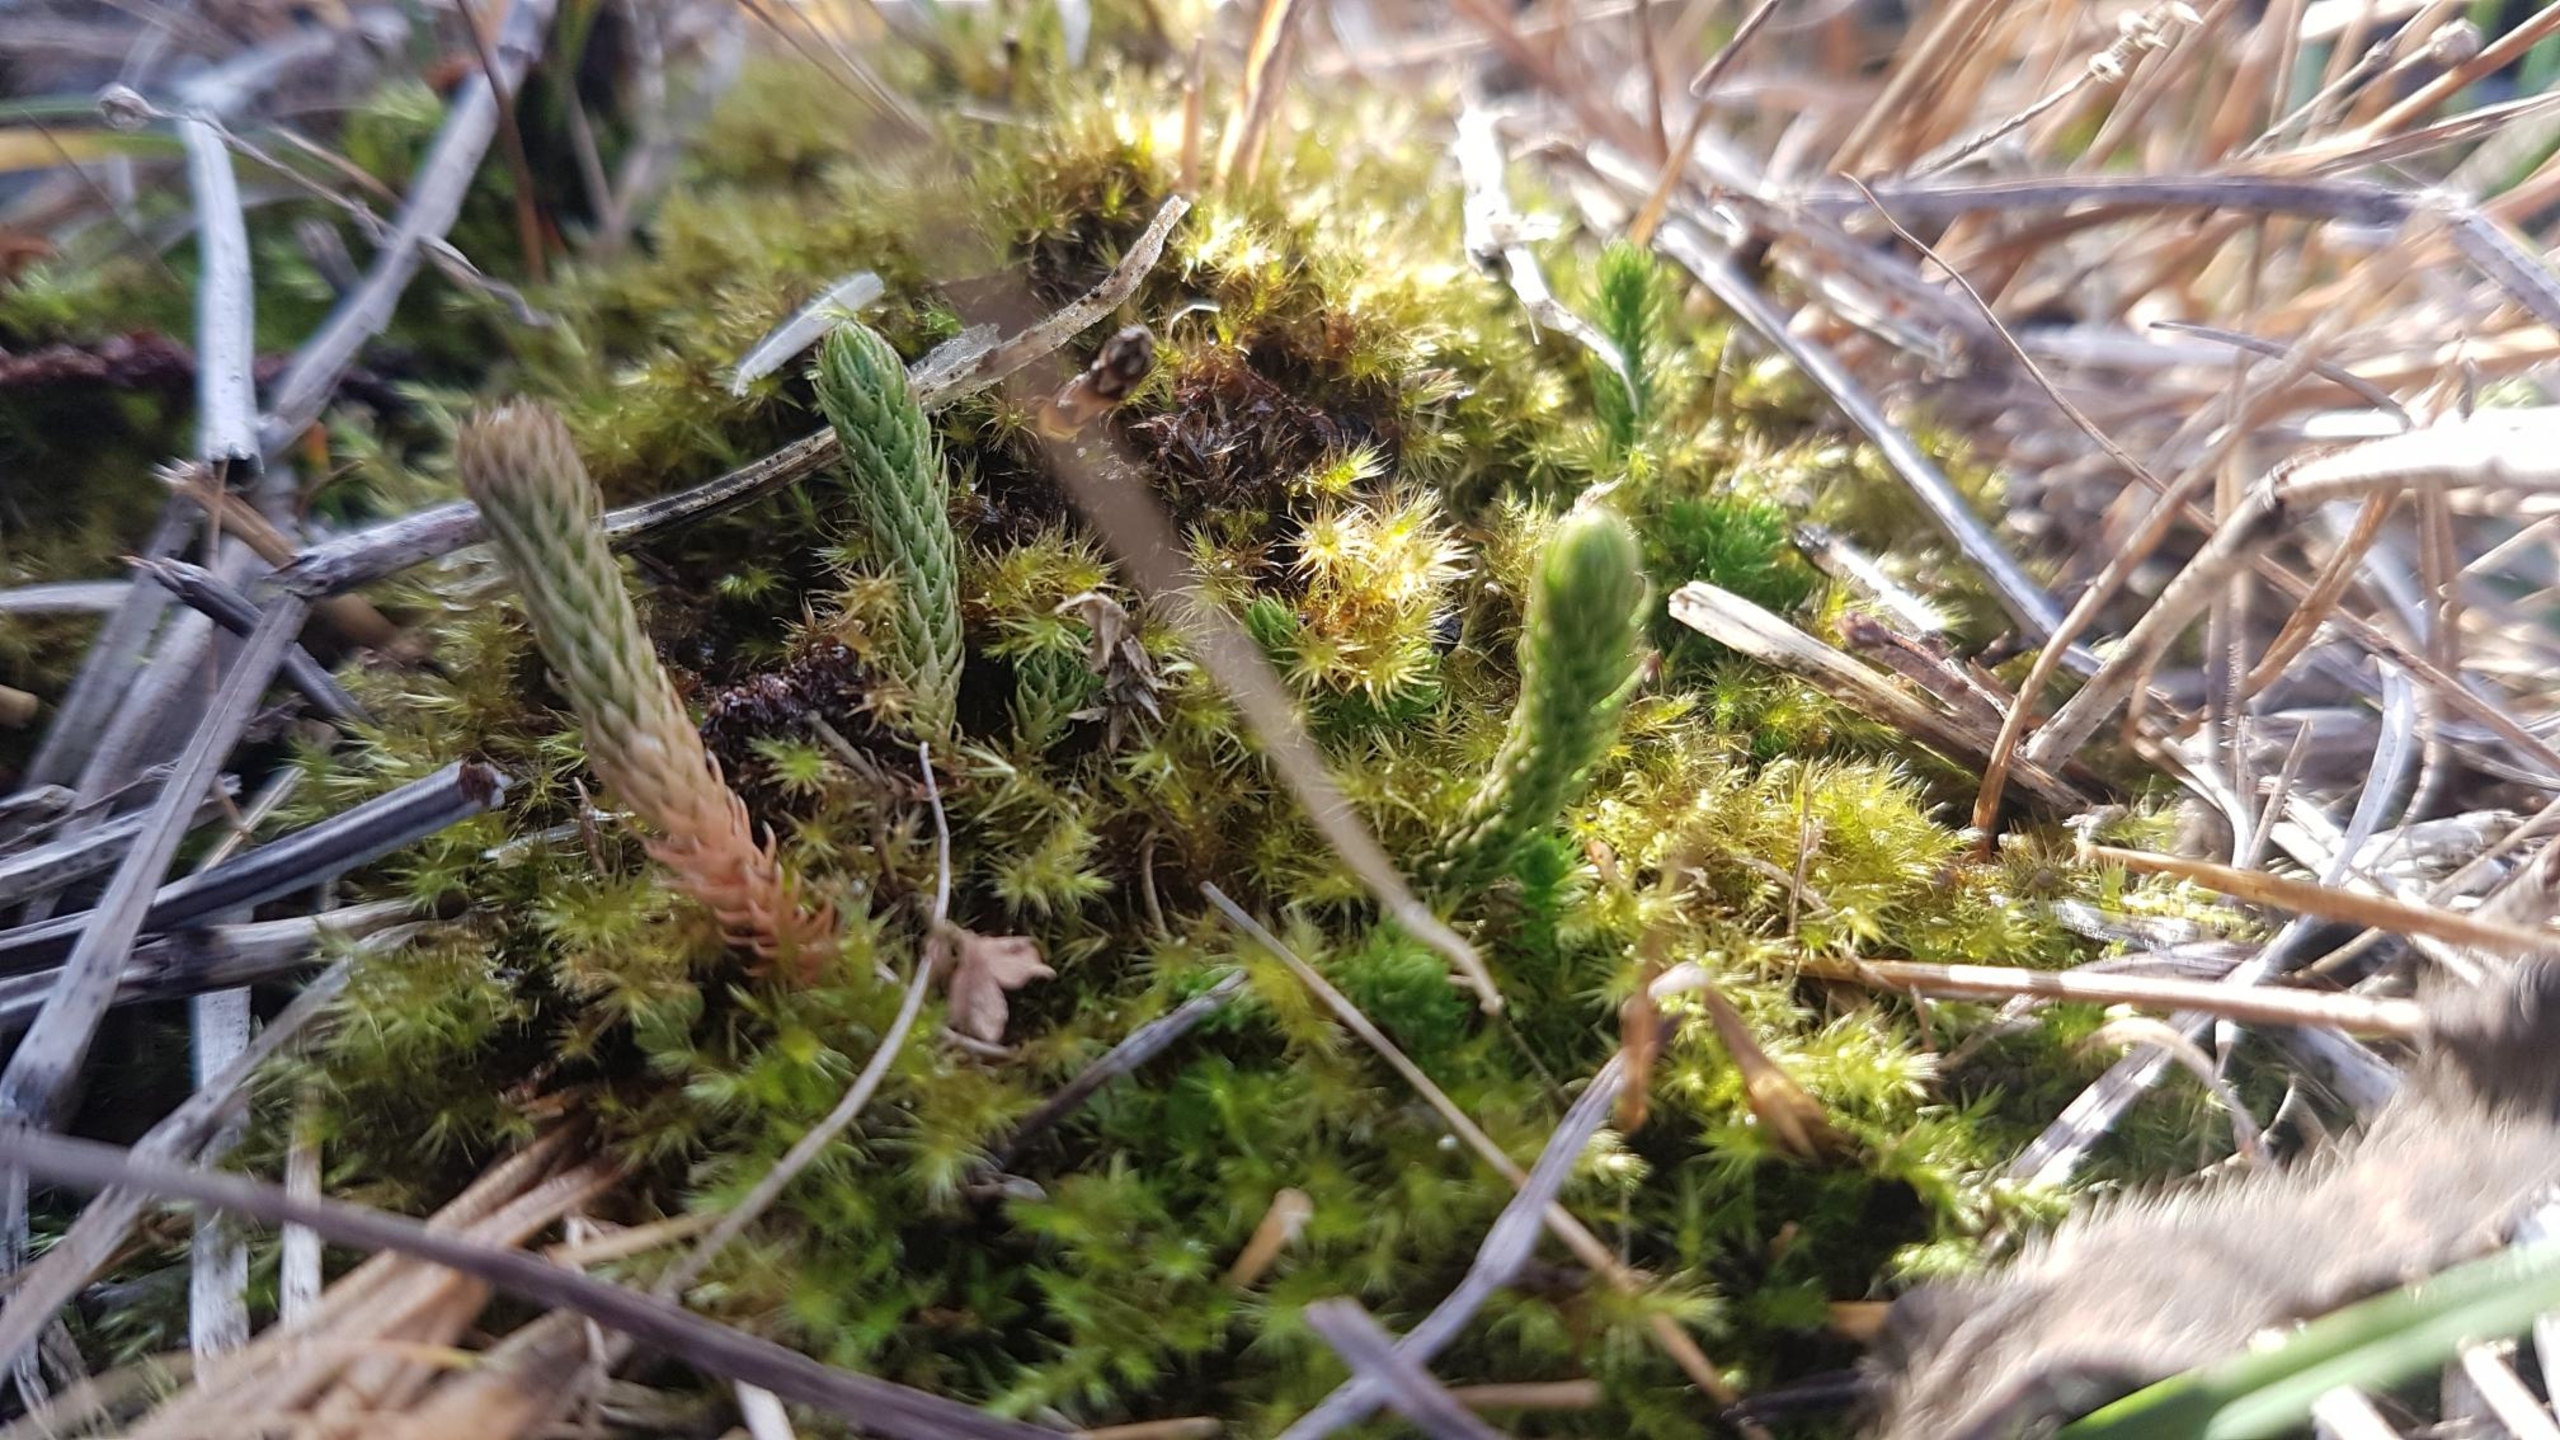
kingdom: Plantae
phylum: Tracheophyta
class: Lycopodiopsida
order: Selaginellales
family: Selaginellaceae
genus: Selaginella
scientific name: Selaginella selaginoides
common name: Dværgulvefod
